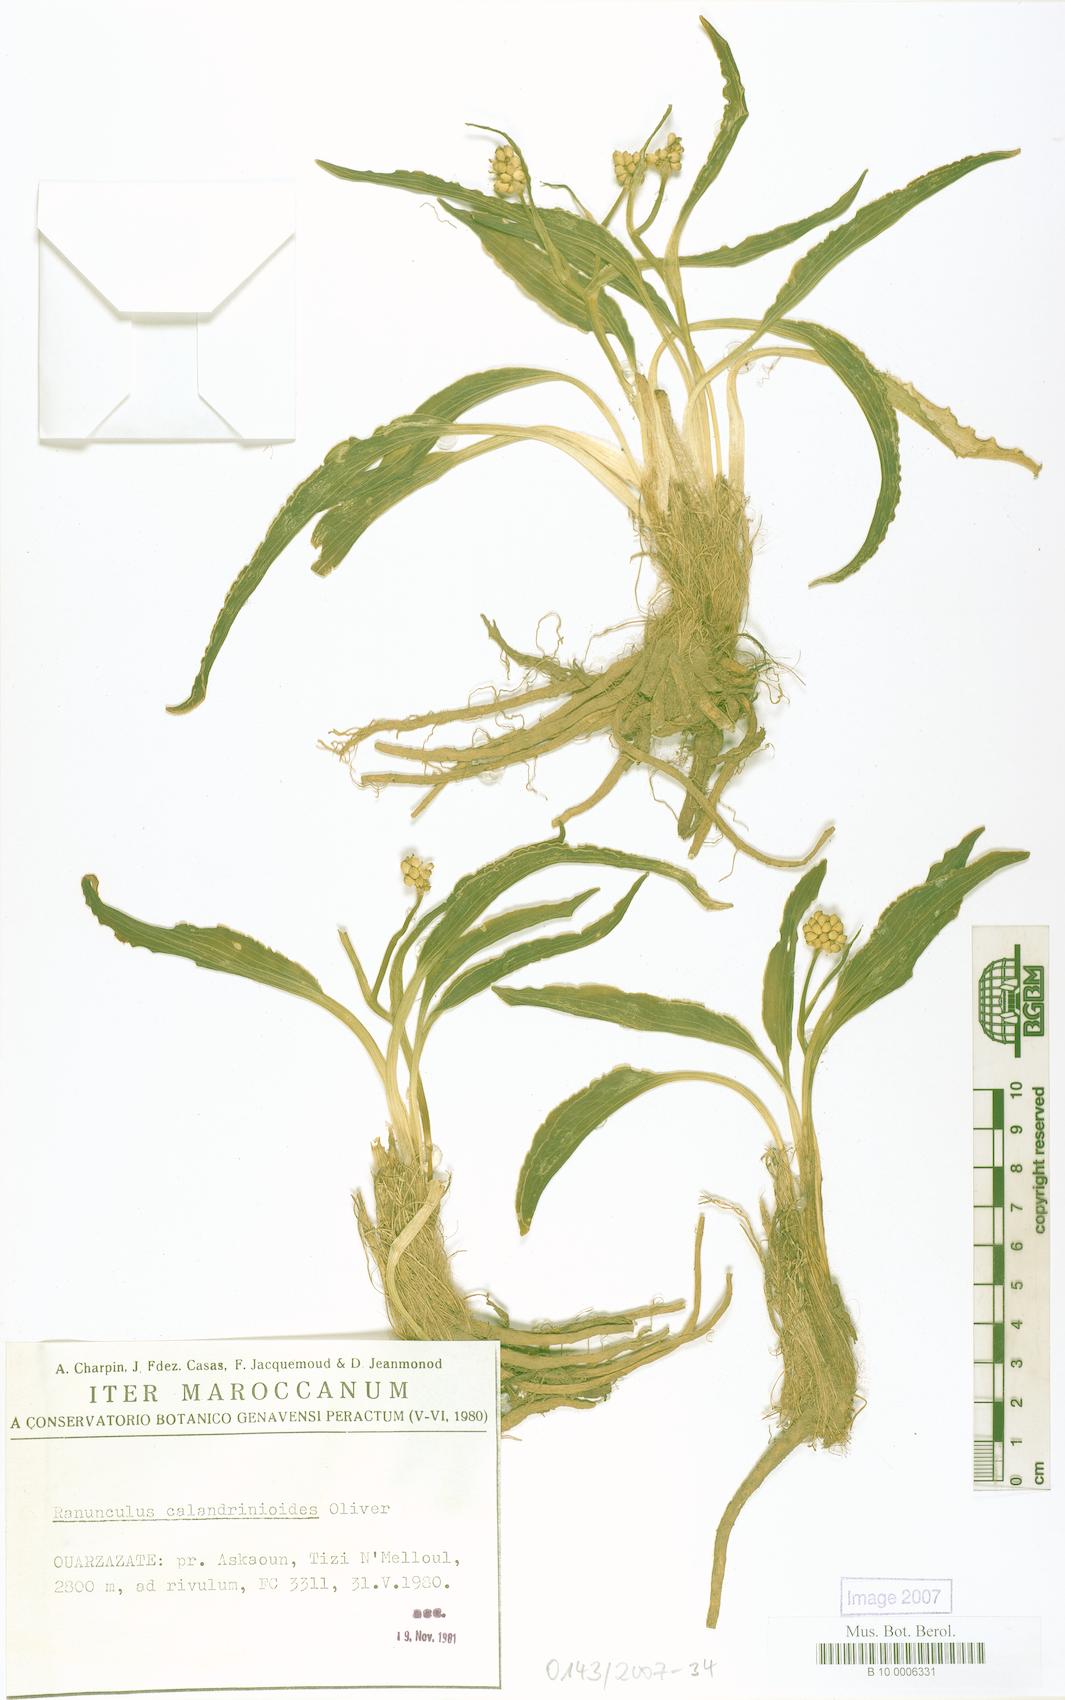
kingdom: Plantae
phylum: Tracheophyta
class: Magnoliopsida
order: Ranunculales
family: Ranunculaceae
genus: Ranunculus
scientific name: Ranunculus calandrinioides
